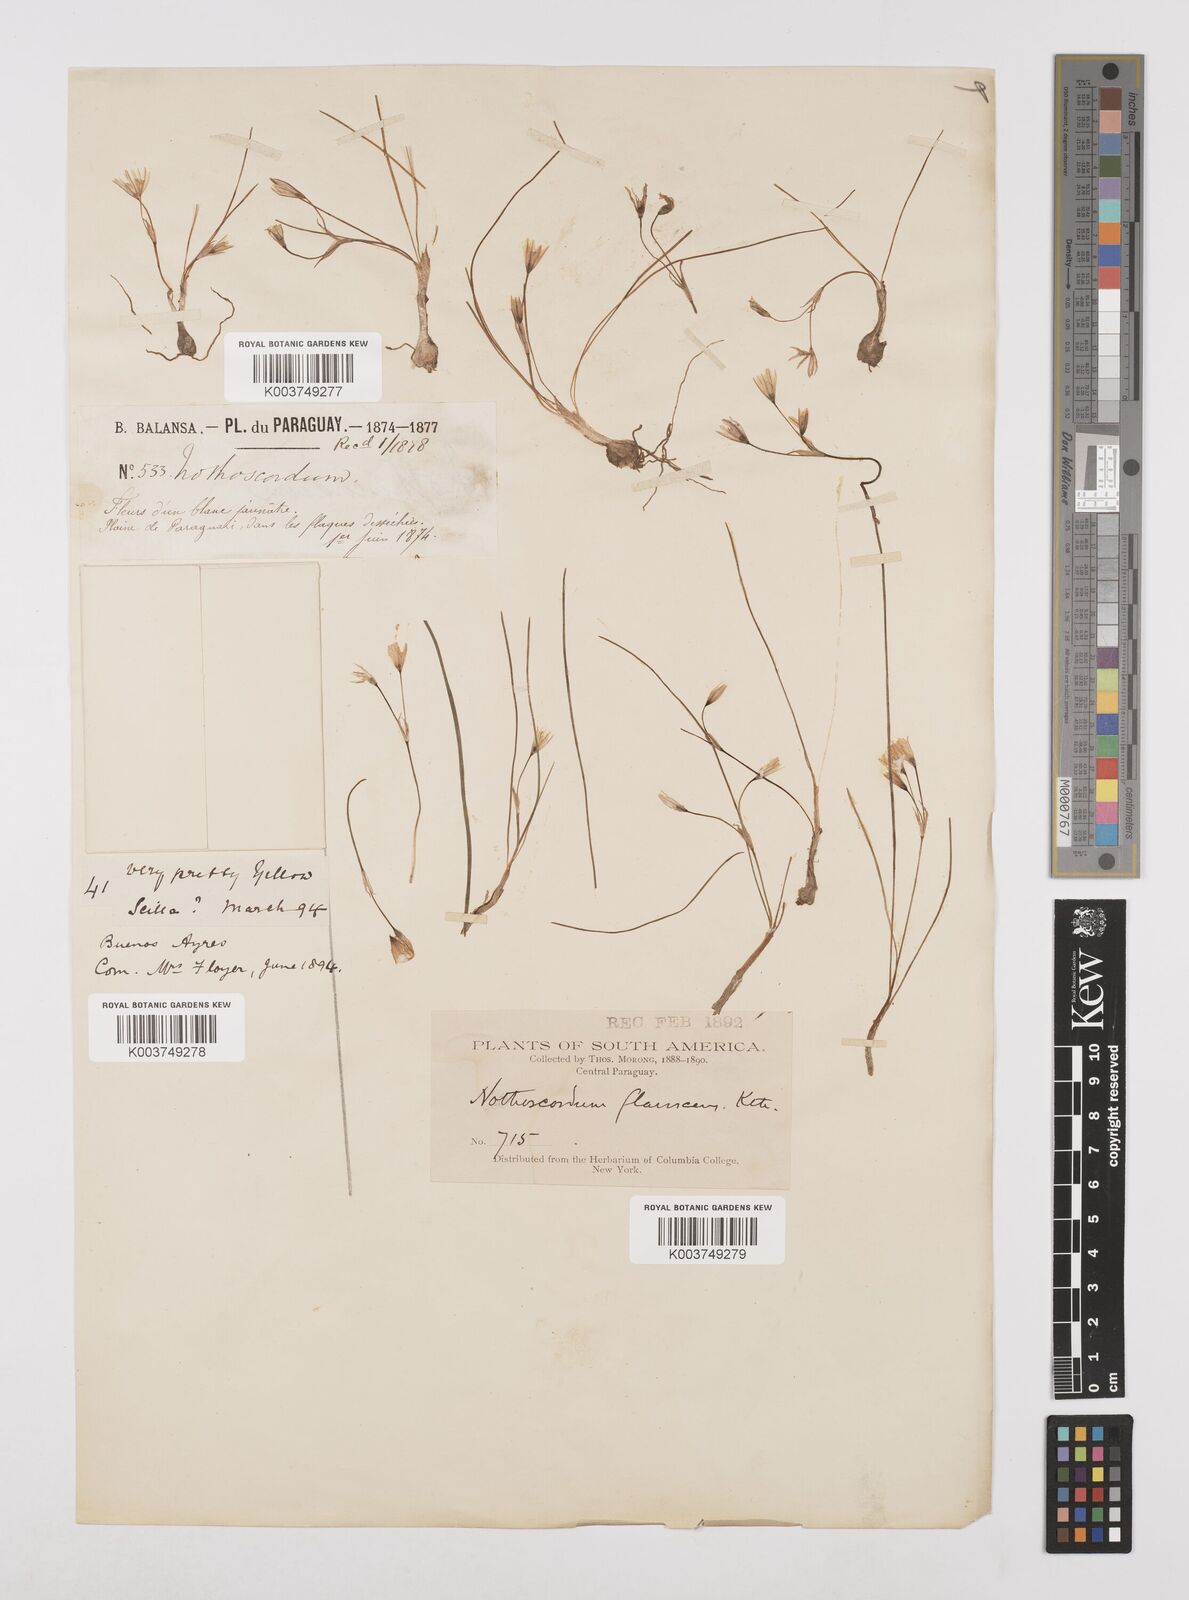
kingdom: Plantae
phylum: Tracheophyta
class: Liliopsida
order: Asparagales
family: Amaryllidaceae
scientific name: Amaryllidaceae
